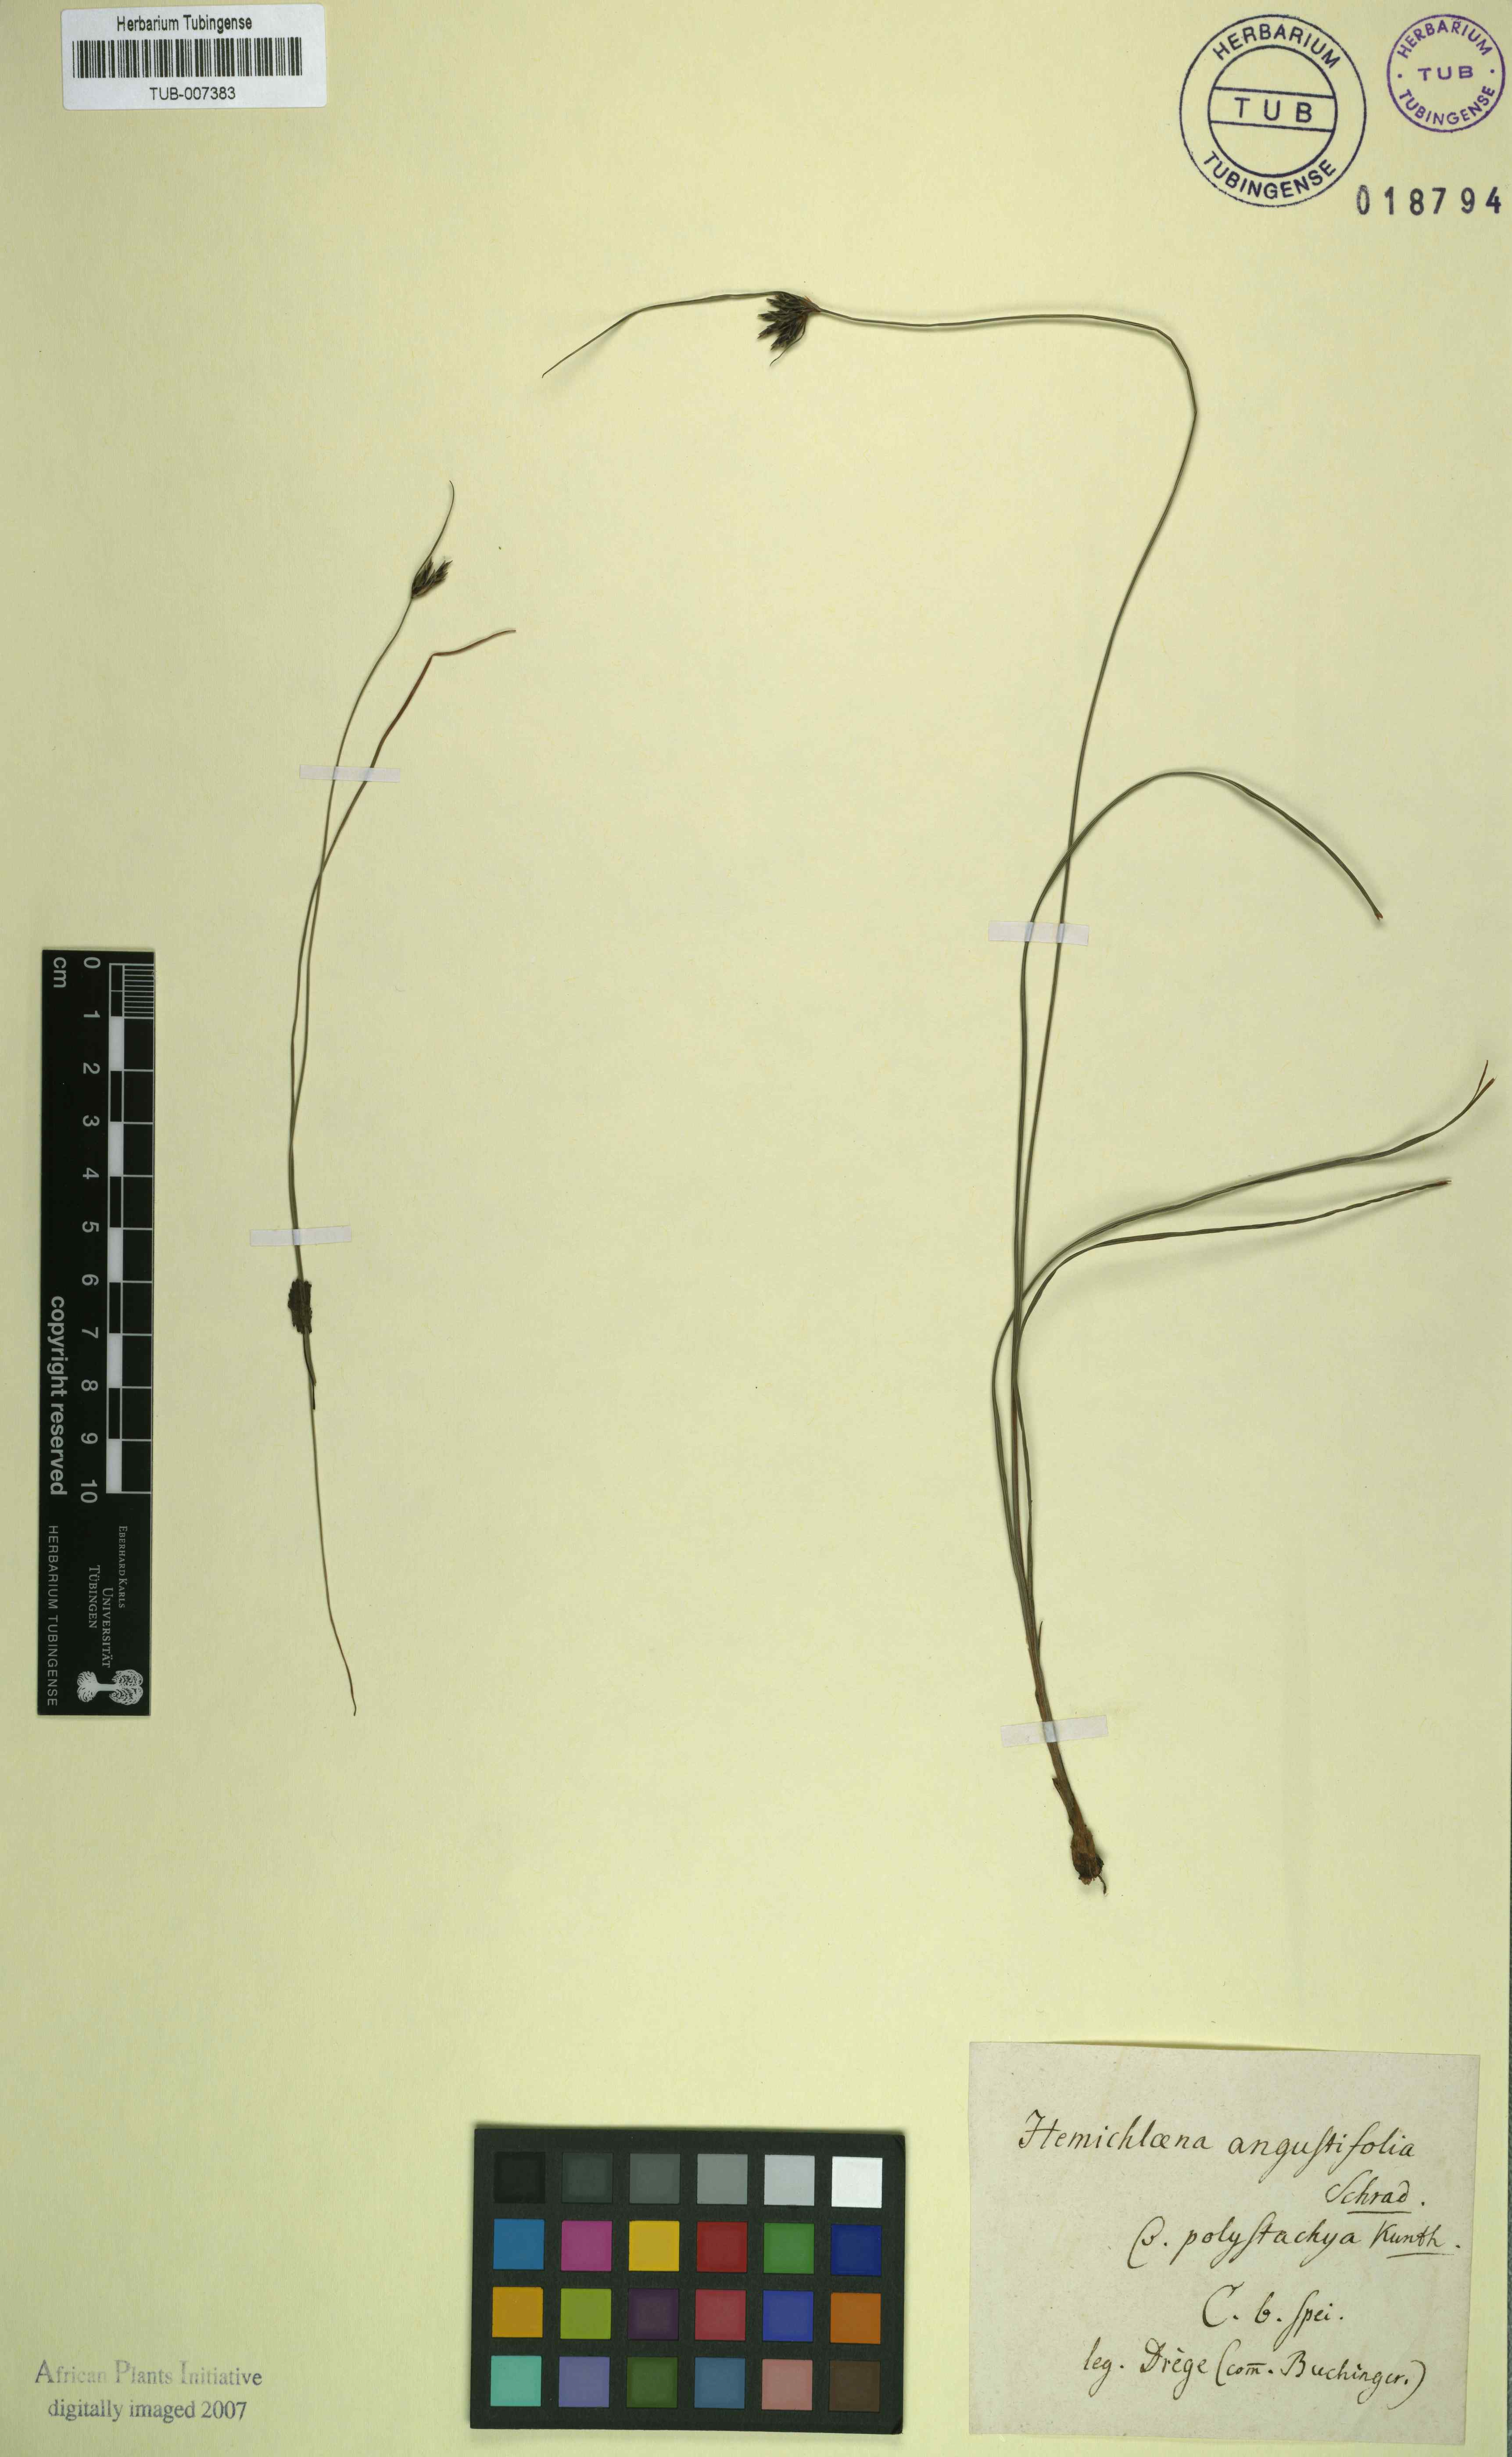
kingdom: Plantae
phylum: Tracheophyta
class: Liliopsida
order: Poales
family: Cyperaceae
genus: Ficinia
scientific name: Ficinia angustifolia
